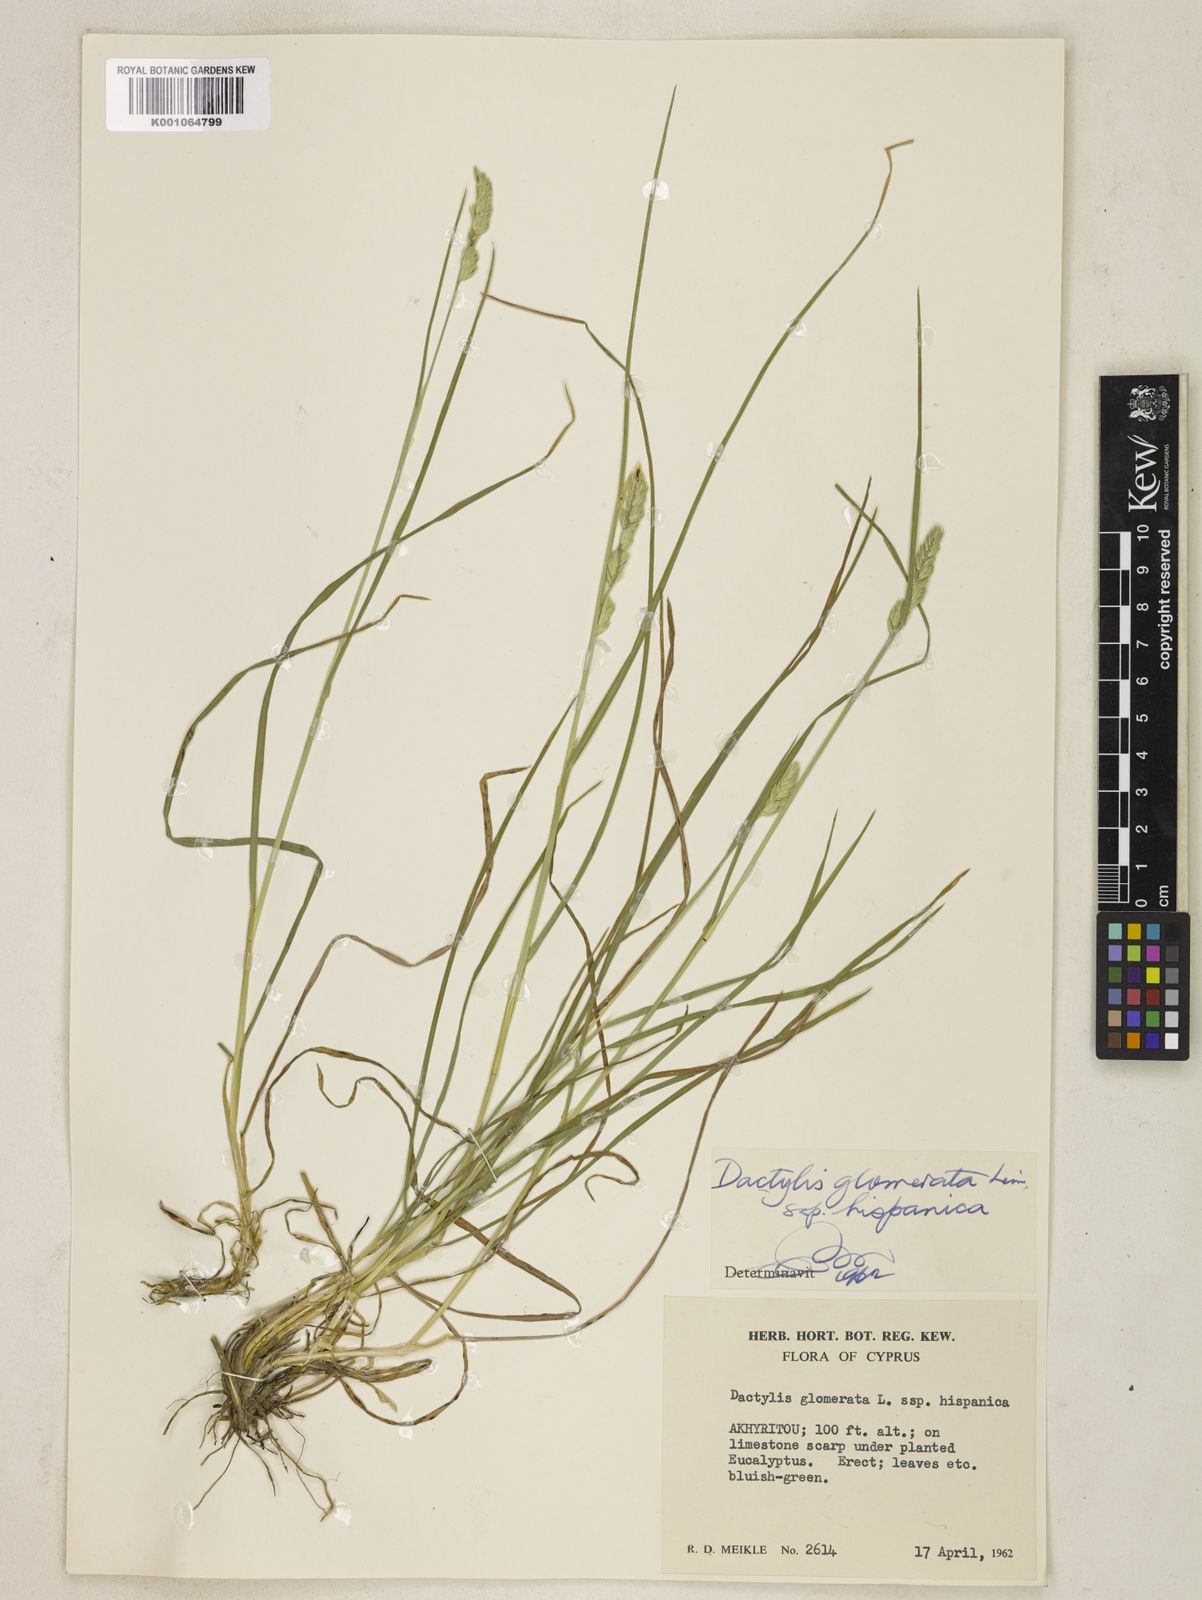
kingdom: Plantae
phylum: Tracheophyta
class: Liliopsida
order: Poales
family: Poaceae
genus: Dactylis
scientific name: Dactylis glomerata
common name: Orchardgrass
